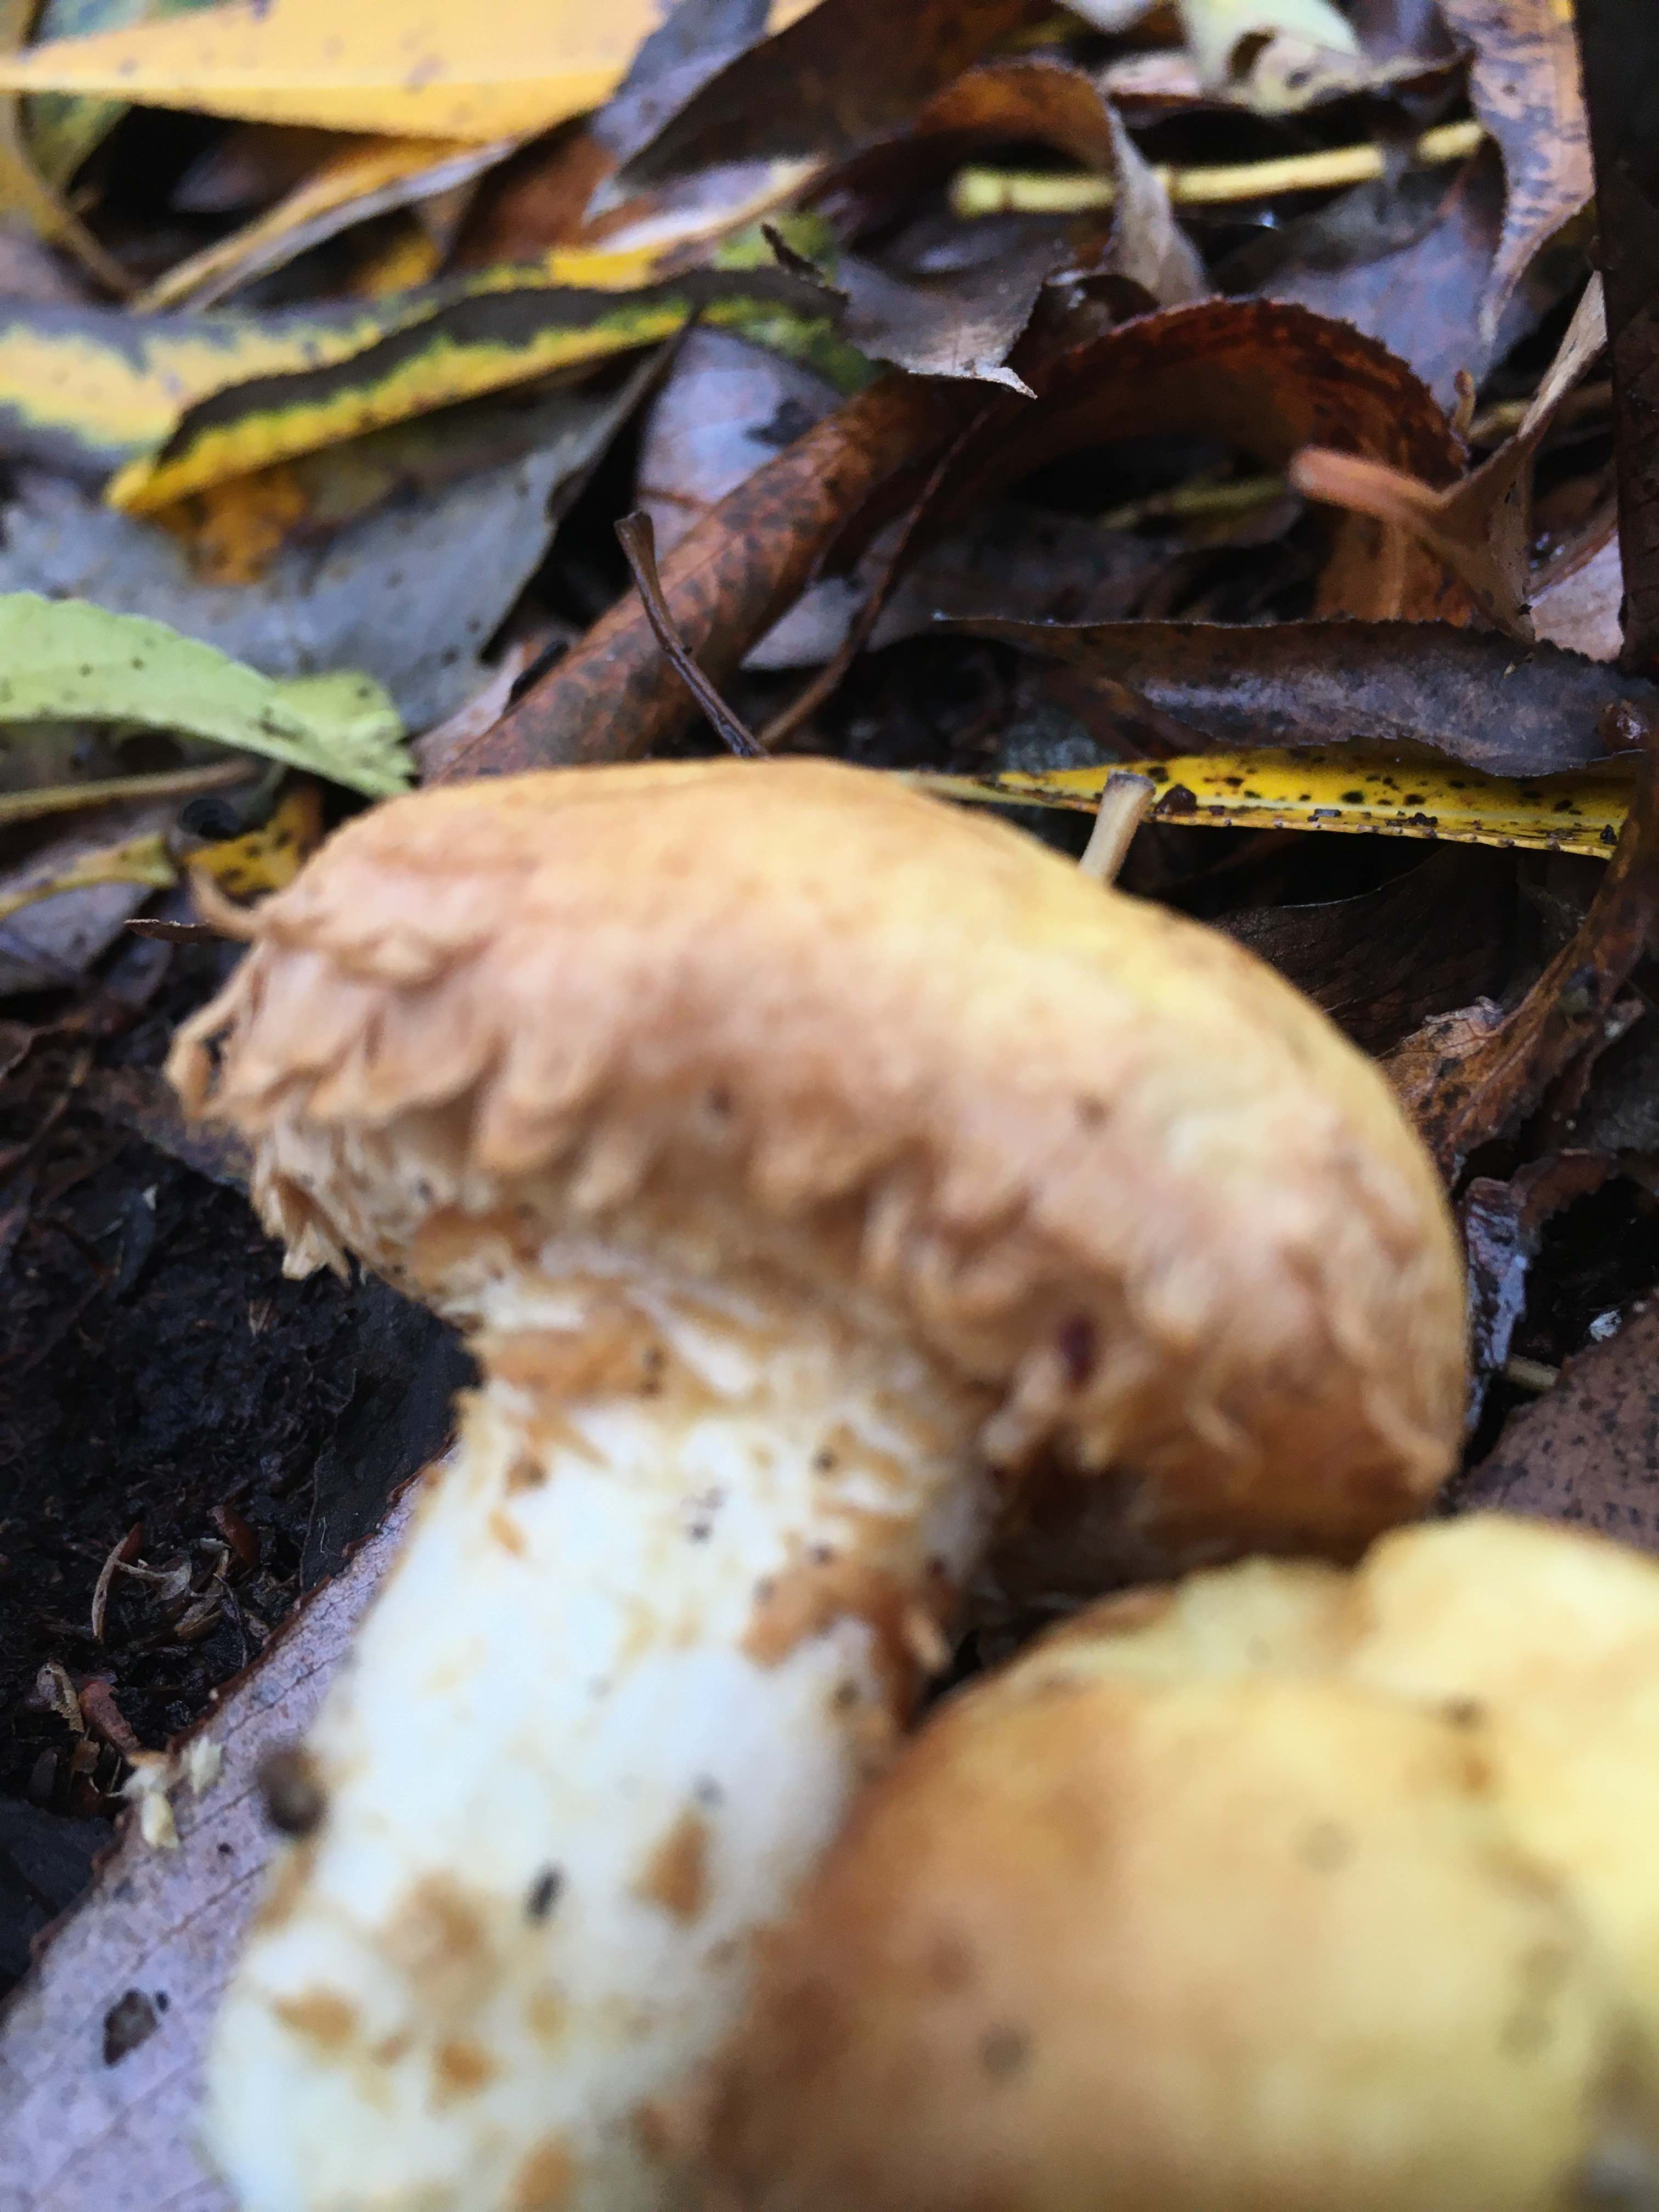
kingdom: Fungi
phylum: Basidiomycota
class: Agaricomycetes
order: Agaricales
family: Strophariaceae
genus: Pholiota
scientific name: Pholiota squarrosa
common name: krumskællet skælhat
